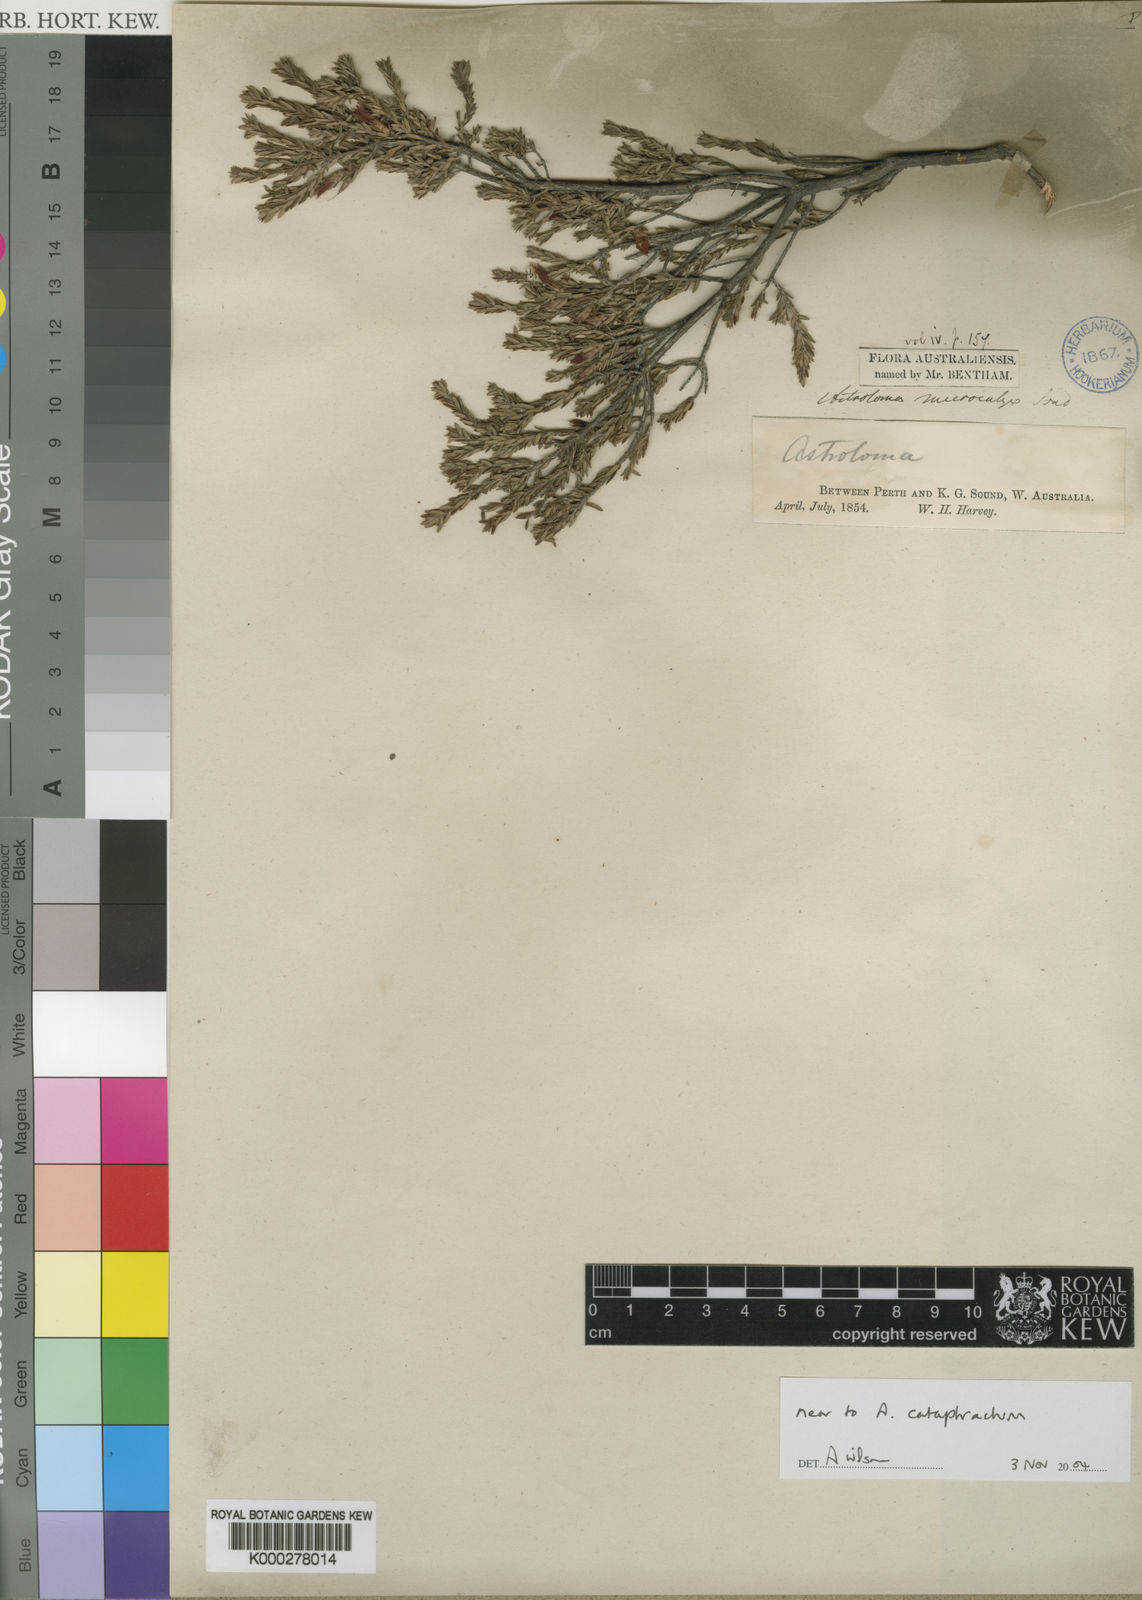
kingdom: Plantae
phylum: Tracheophyta
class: Magnoliopsida
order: Ericales
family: Ericaceae
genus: Styphelia
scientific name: Styphelia
